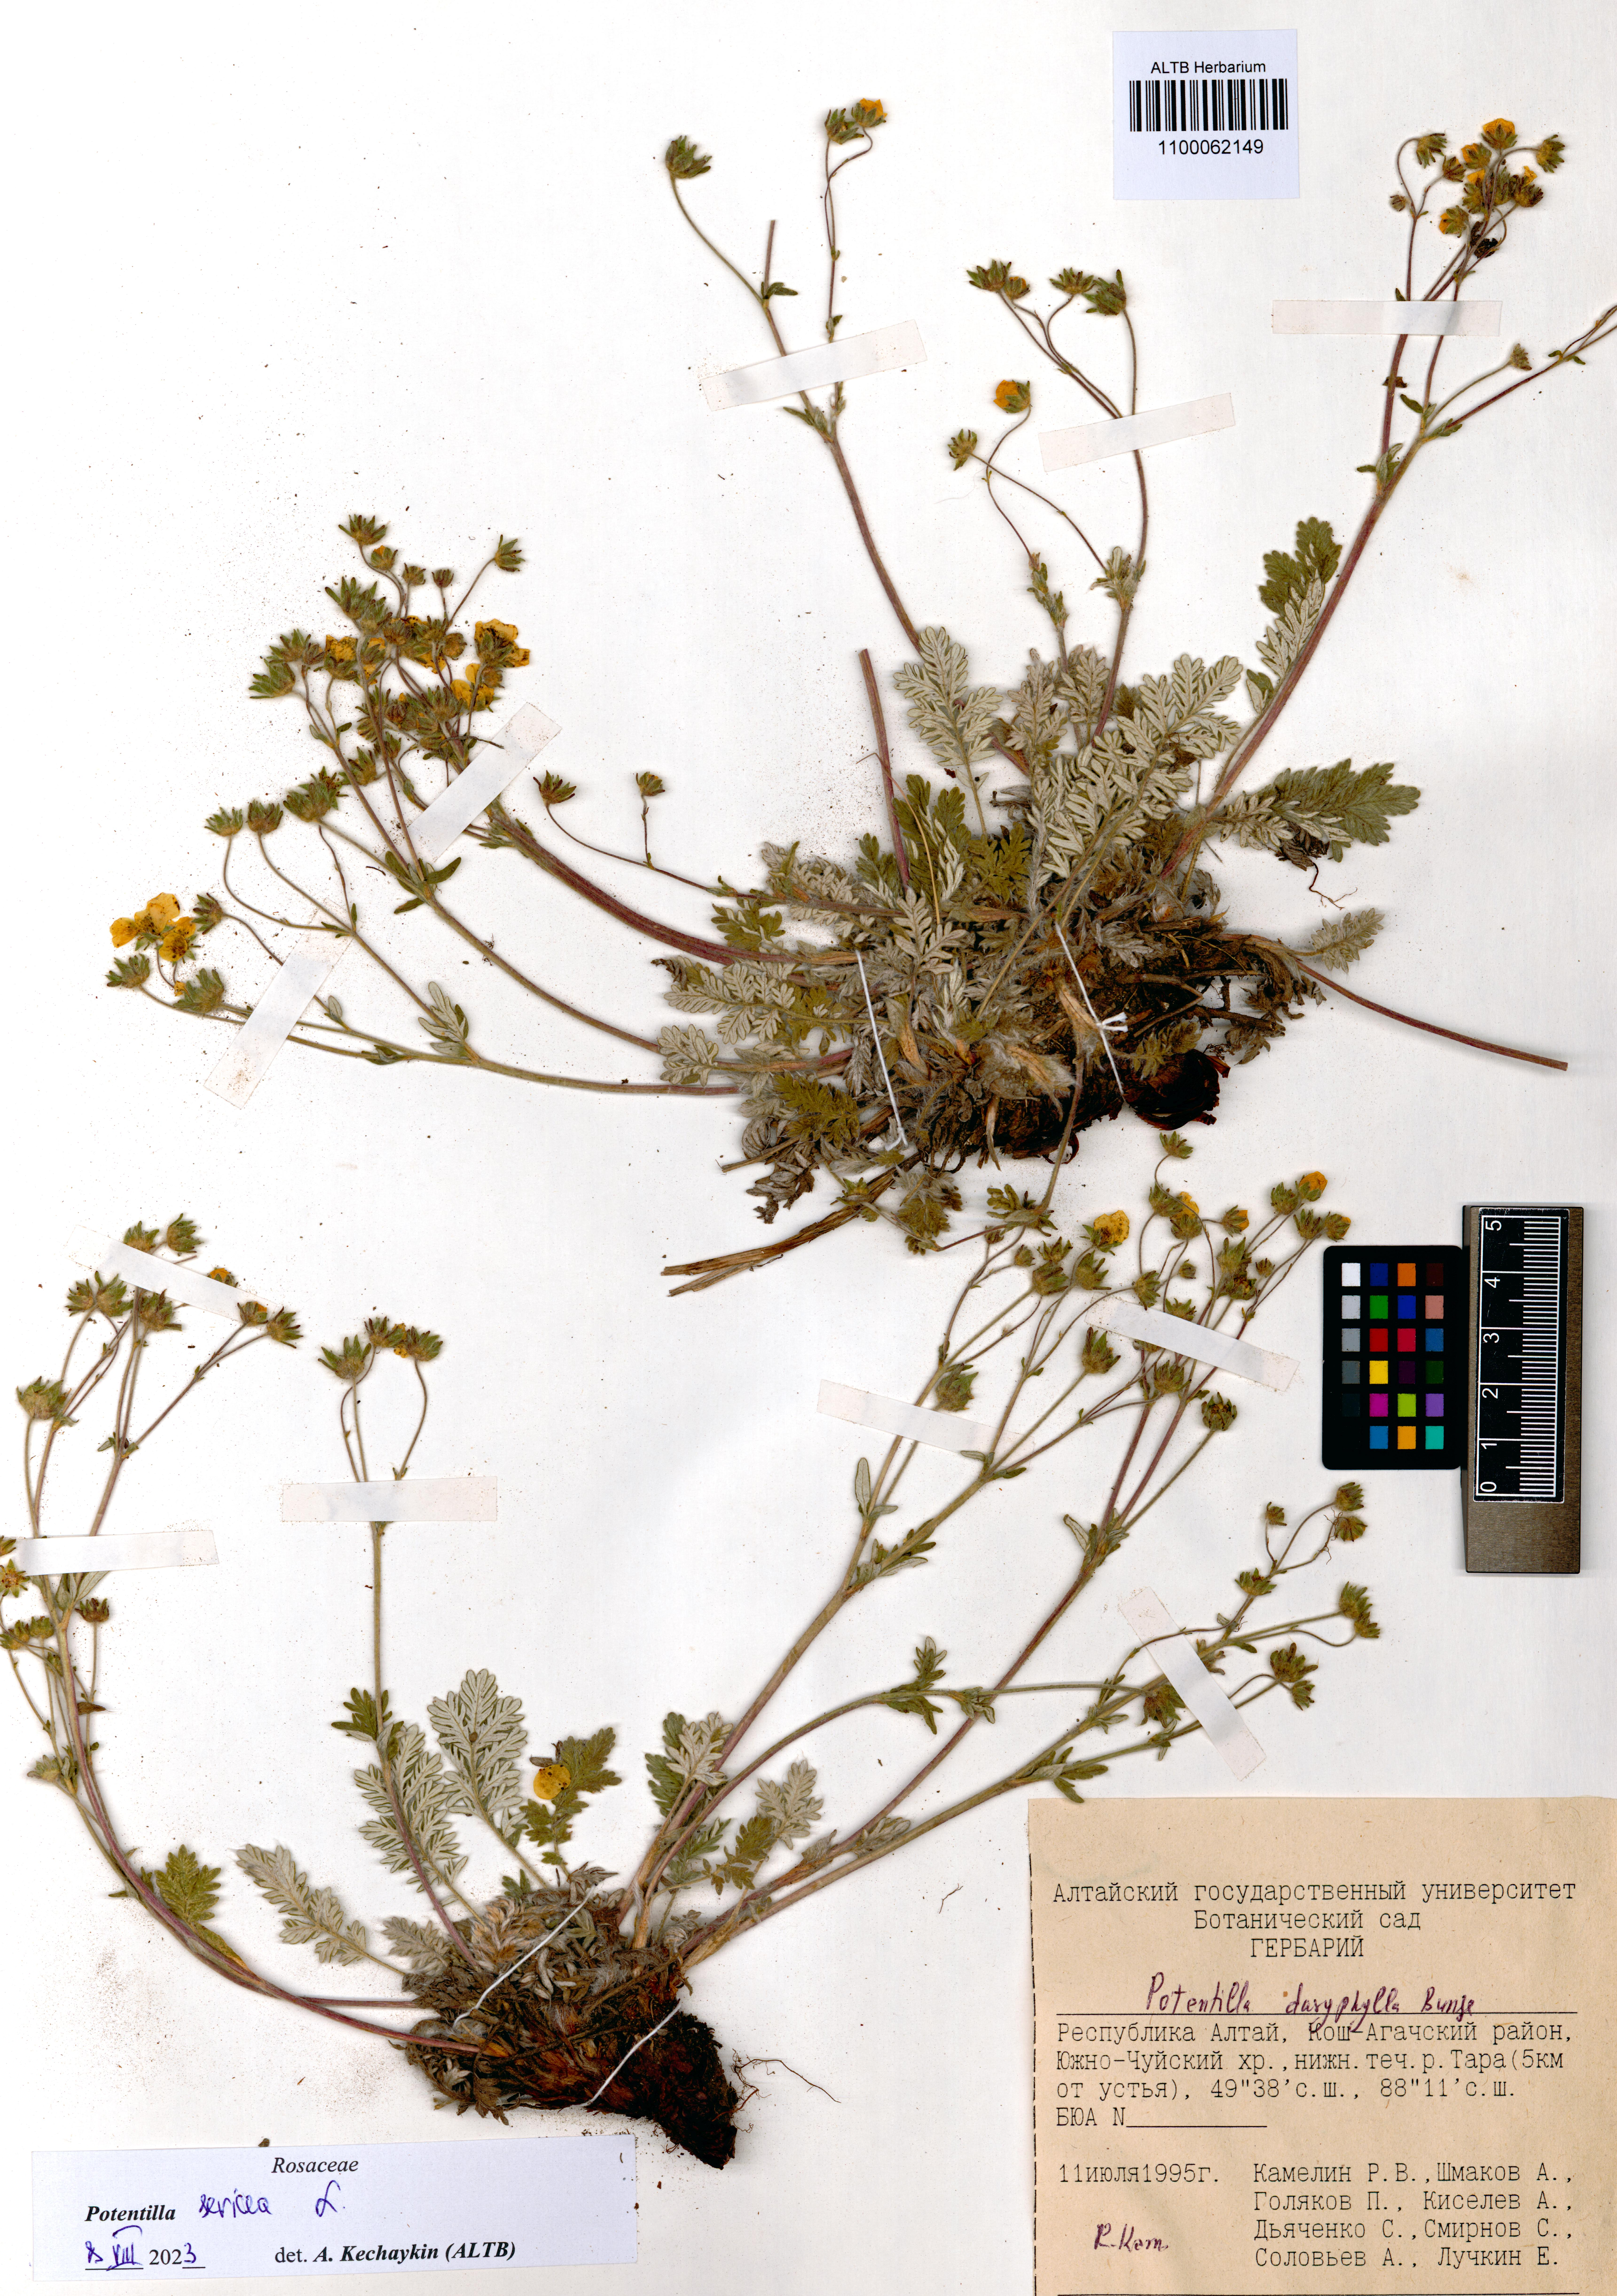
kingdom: Plantae
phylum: Tracheophyta
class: Magnoliopsida
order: Rosales
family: Rosaceae
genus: Potentilla
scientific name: Potentilla sericea
